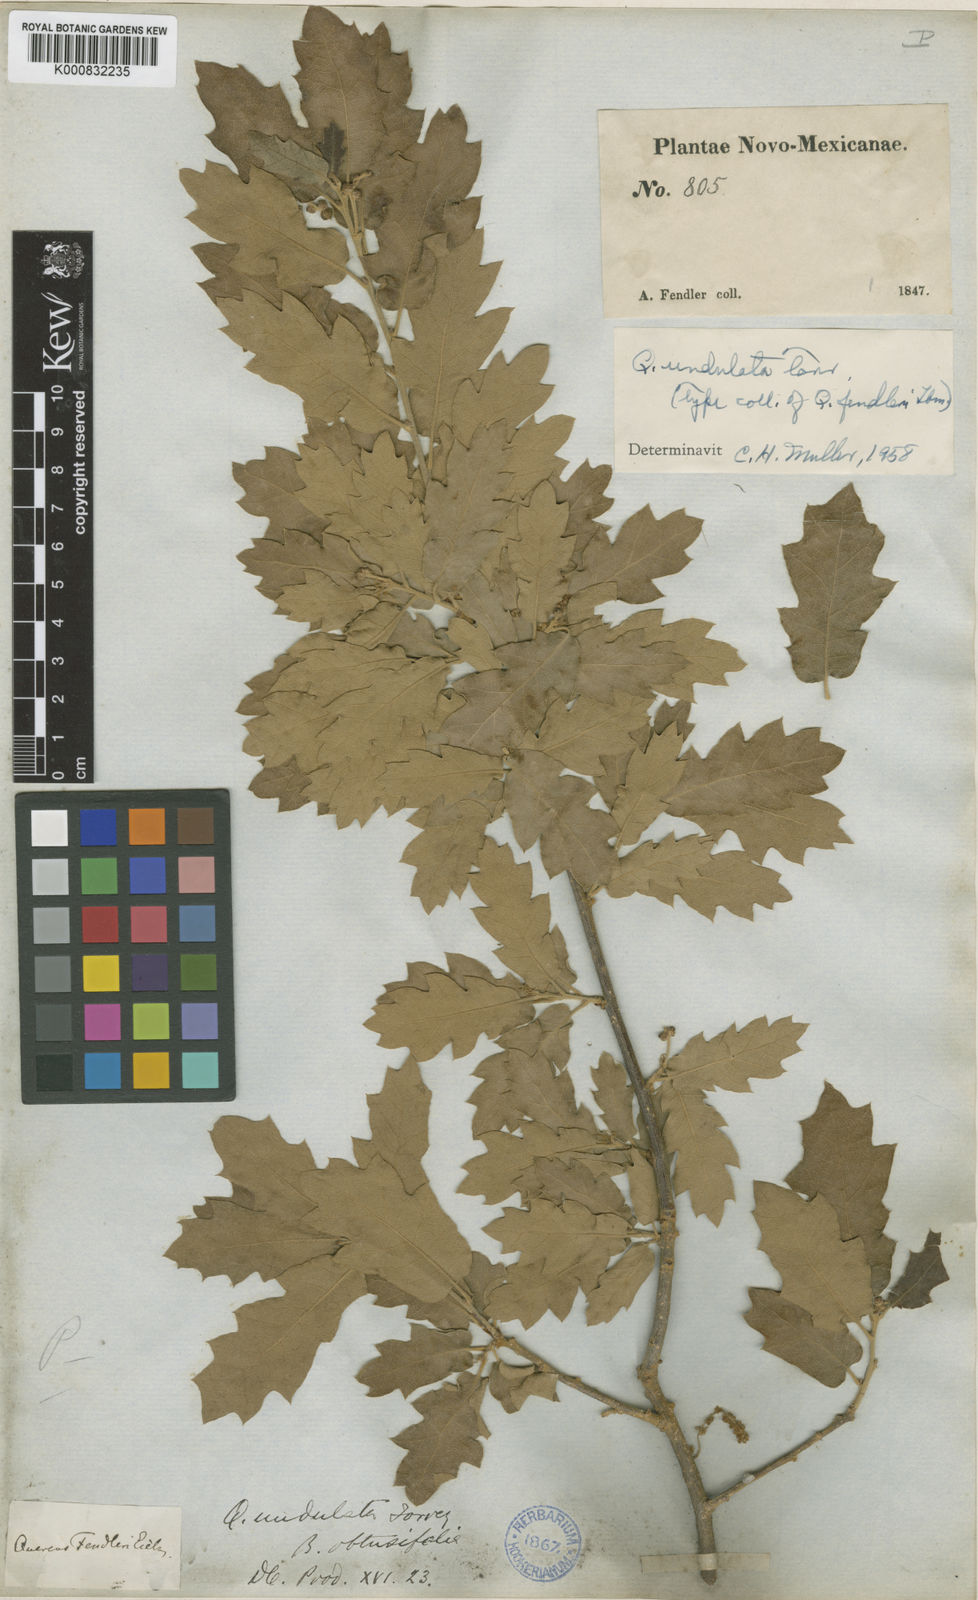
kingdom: Plantae
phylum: Tracheophyta
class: Magnoliopsida
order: Fagales
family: Fagaceae
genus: Quercus
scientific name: Quercus undulata
